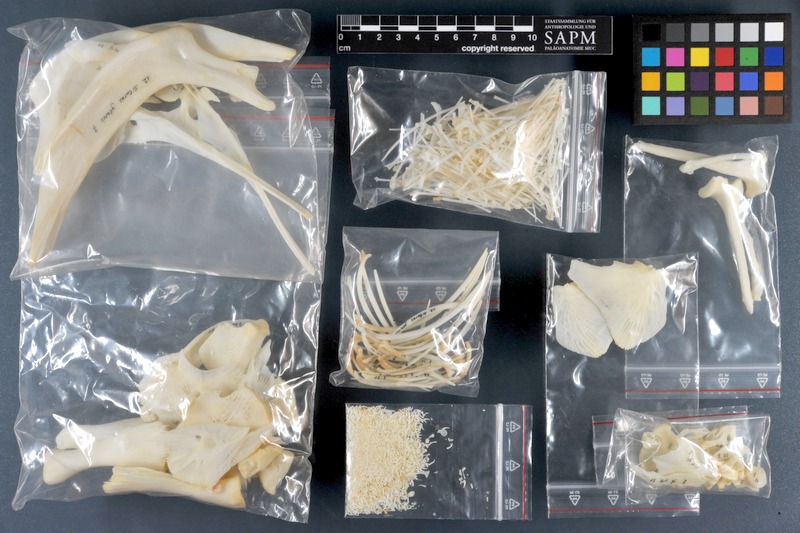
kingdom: Animalia
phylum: Chordata
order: Siluriformes
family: Siluridae
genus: Silurus
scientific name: Silurus glanis
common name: Wels
